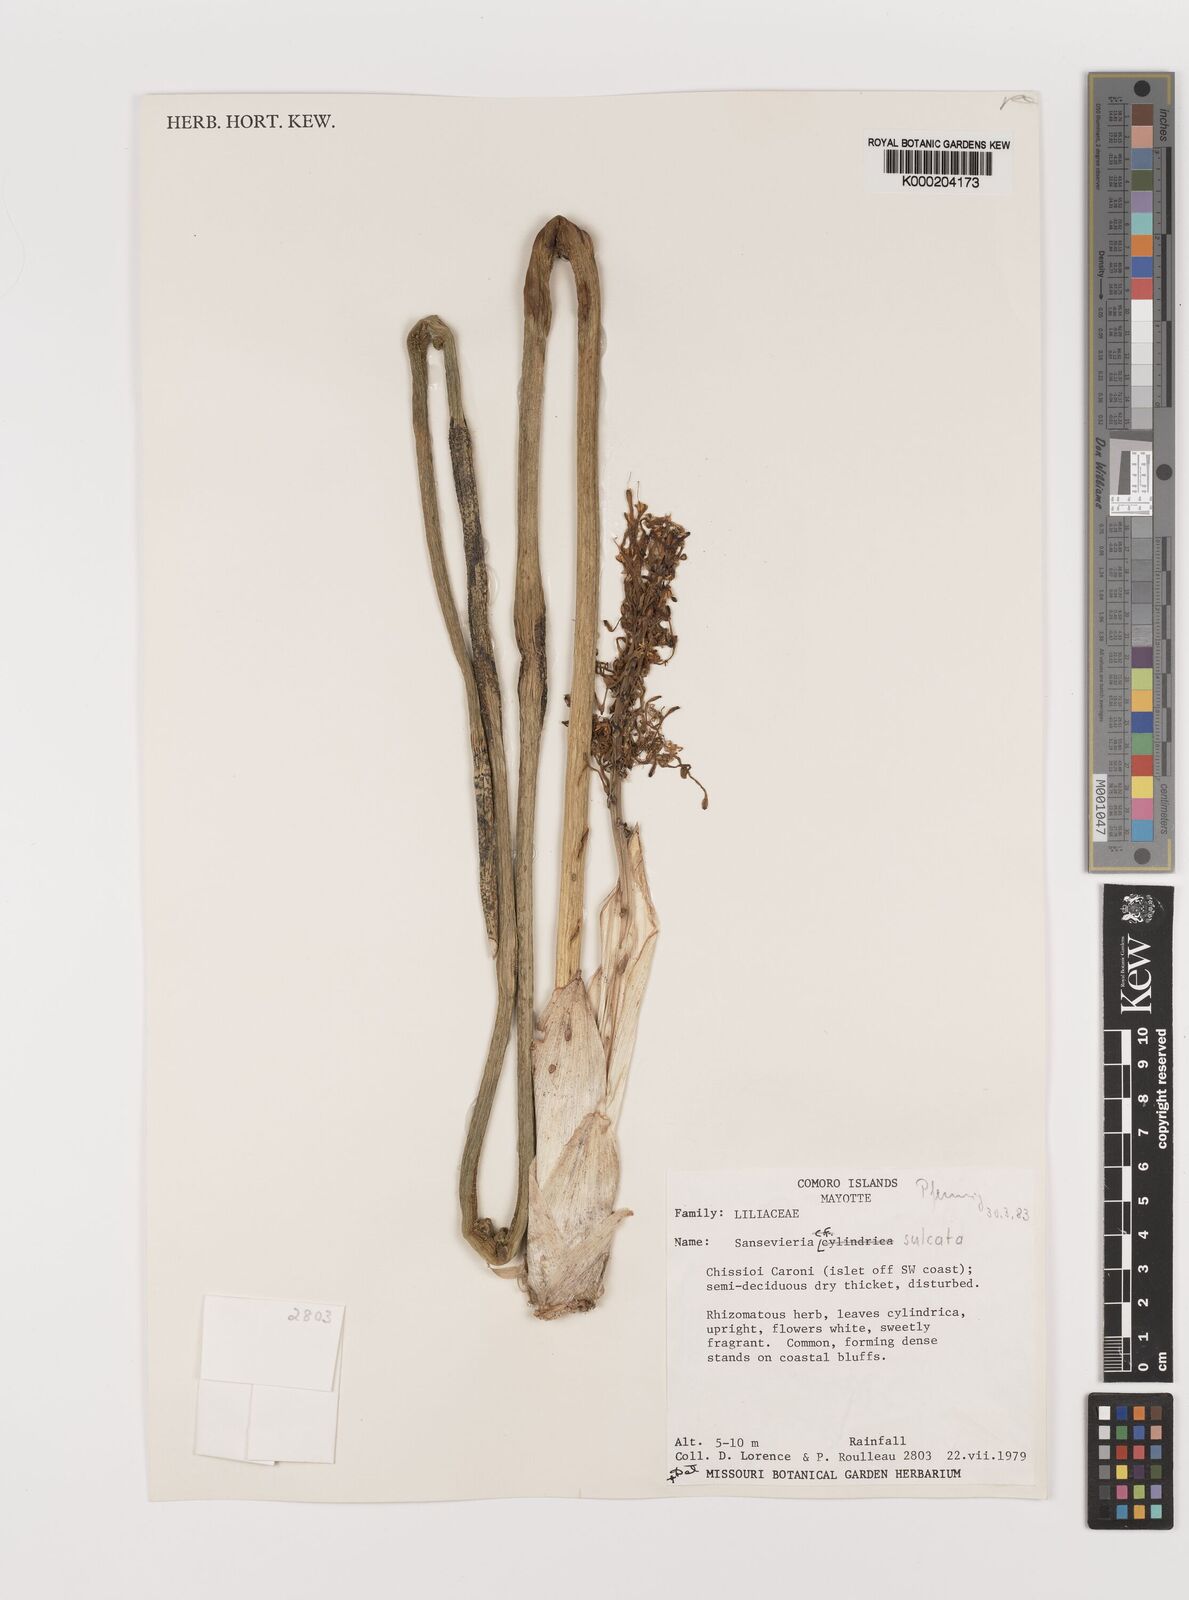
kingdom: Plantae
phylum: Tracheophyta
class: Liliopsida
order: Asparagales
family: Asparagaceae
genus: Dracaena
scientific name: Dracaena canaliculata
